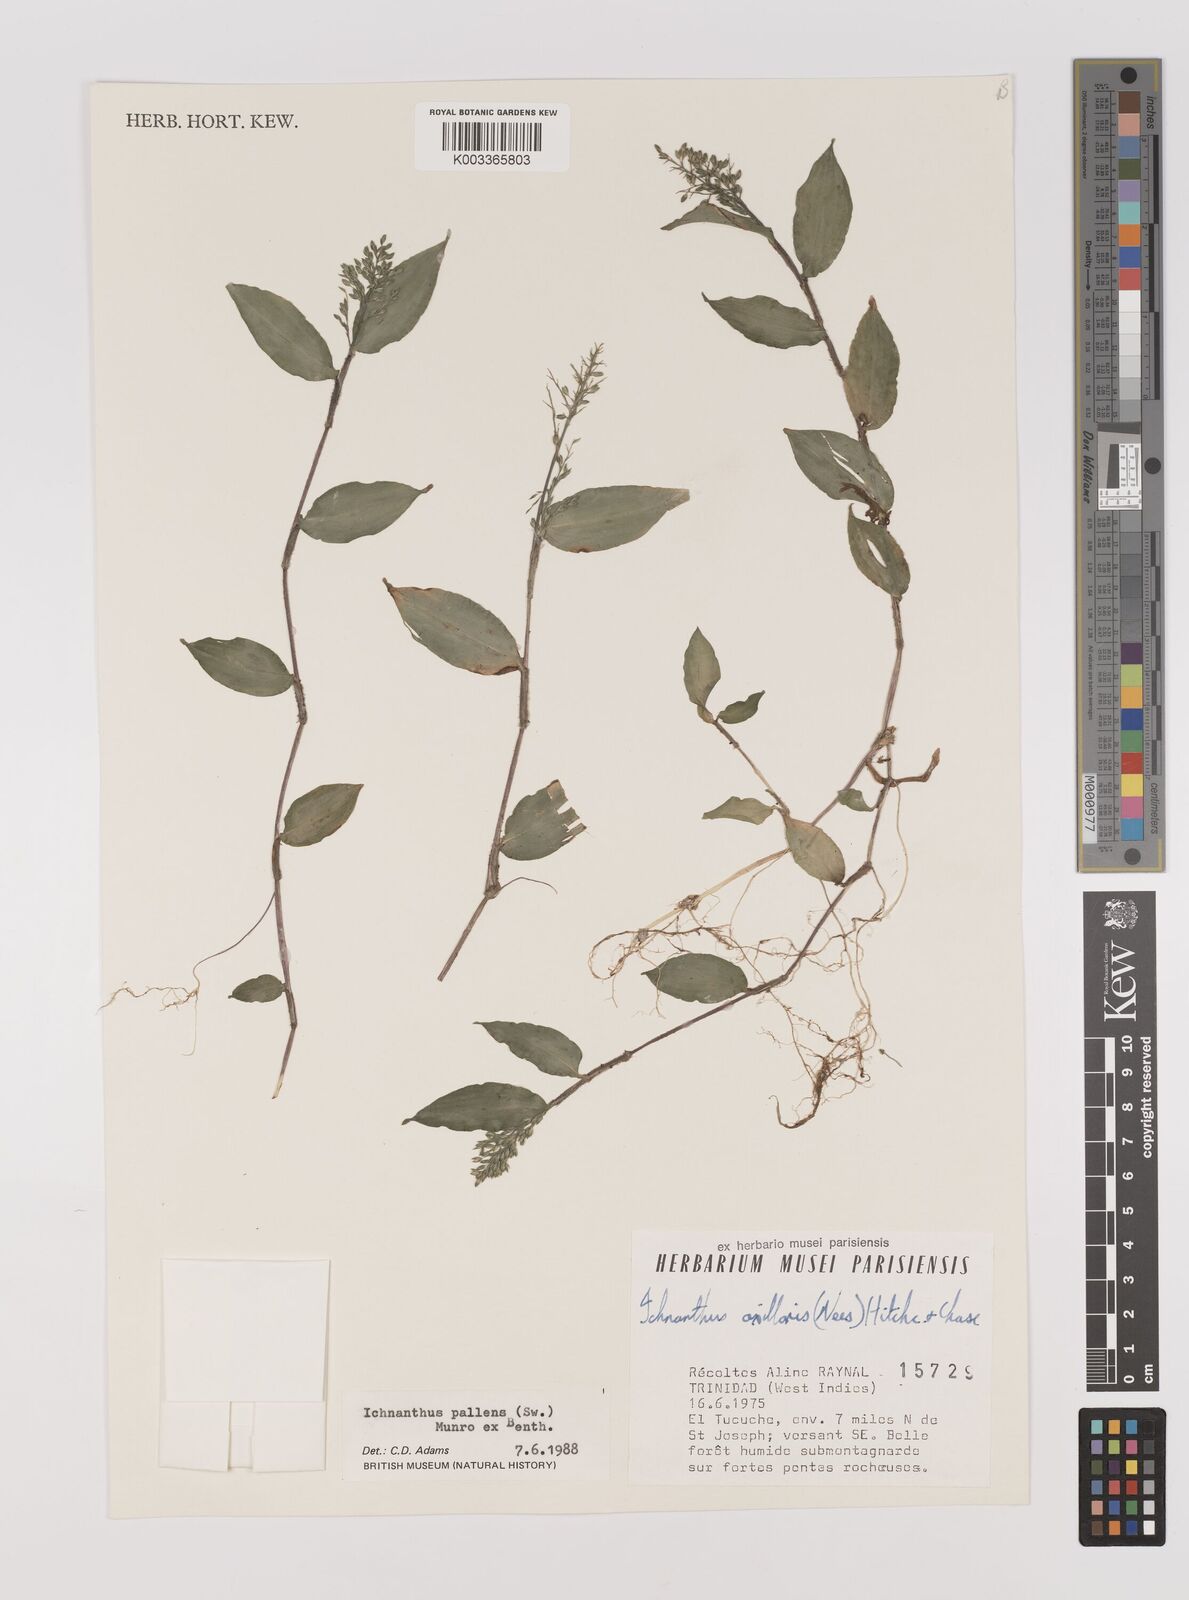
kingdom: Plantae
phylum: Tracheophyta
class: Liliopsida
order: Poales
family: Poaceae
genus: Ichnanthus
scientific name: Ichnanthus pallens
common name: Water grass
